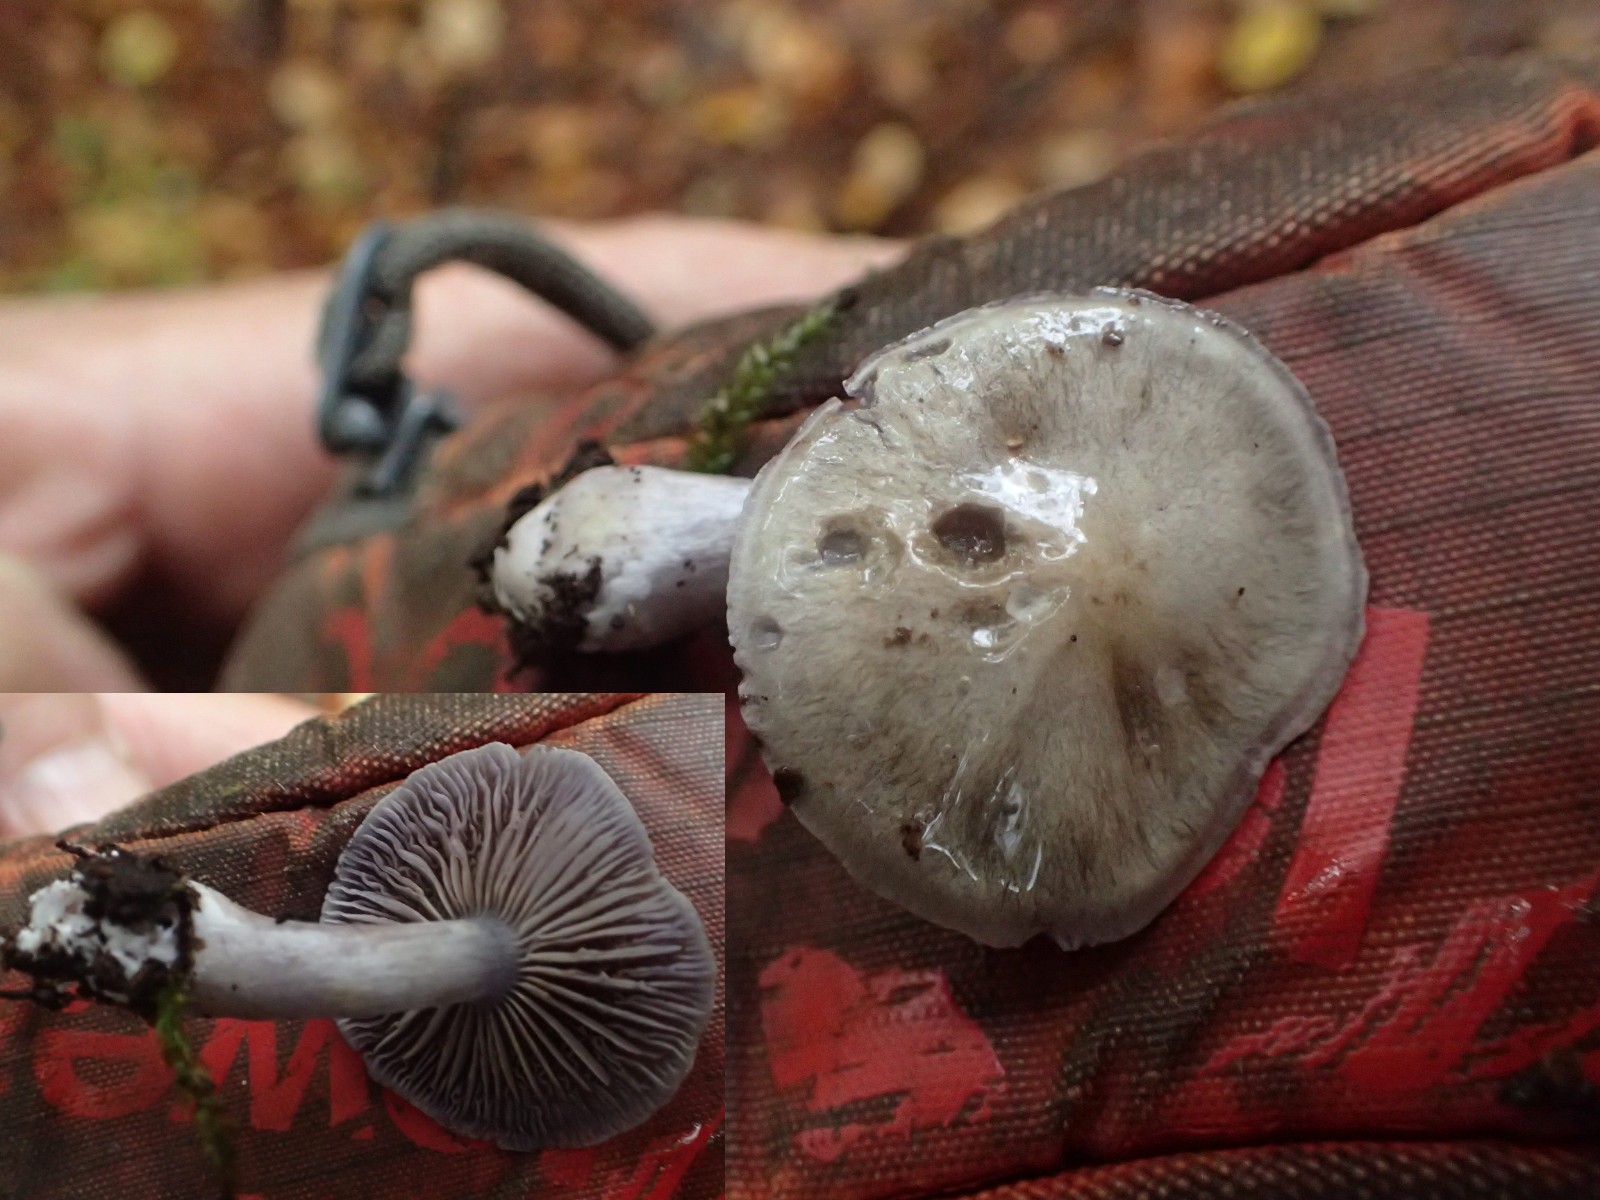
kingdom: Fungi
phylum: Basidiomycota
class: Agaricomycetes
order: Agaricales
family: Strophariaceae
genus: Stropharia
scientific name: Stropharia cyanea
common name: blågrøn bredblad
